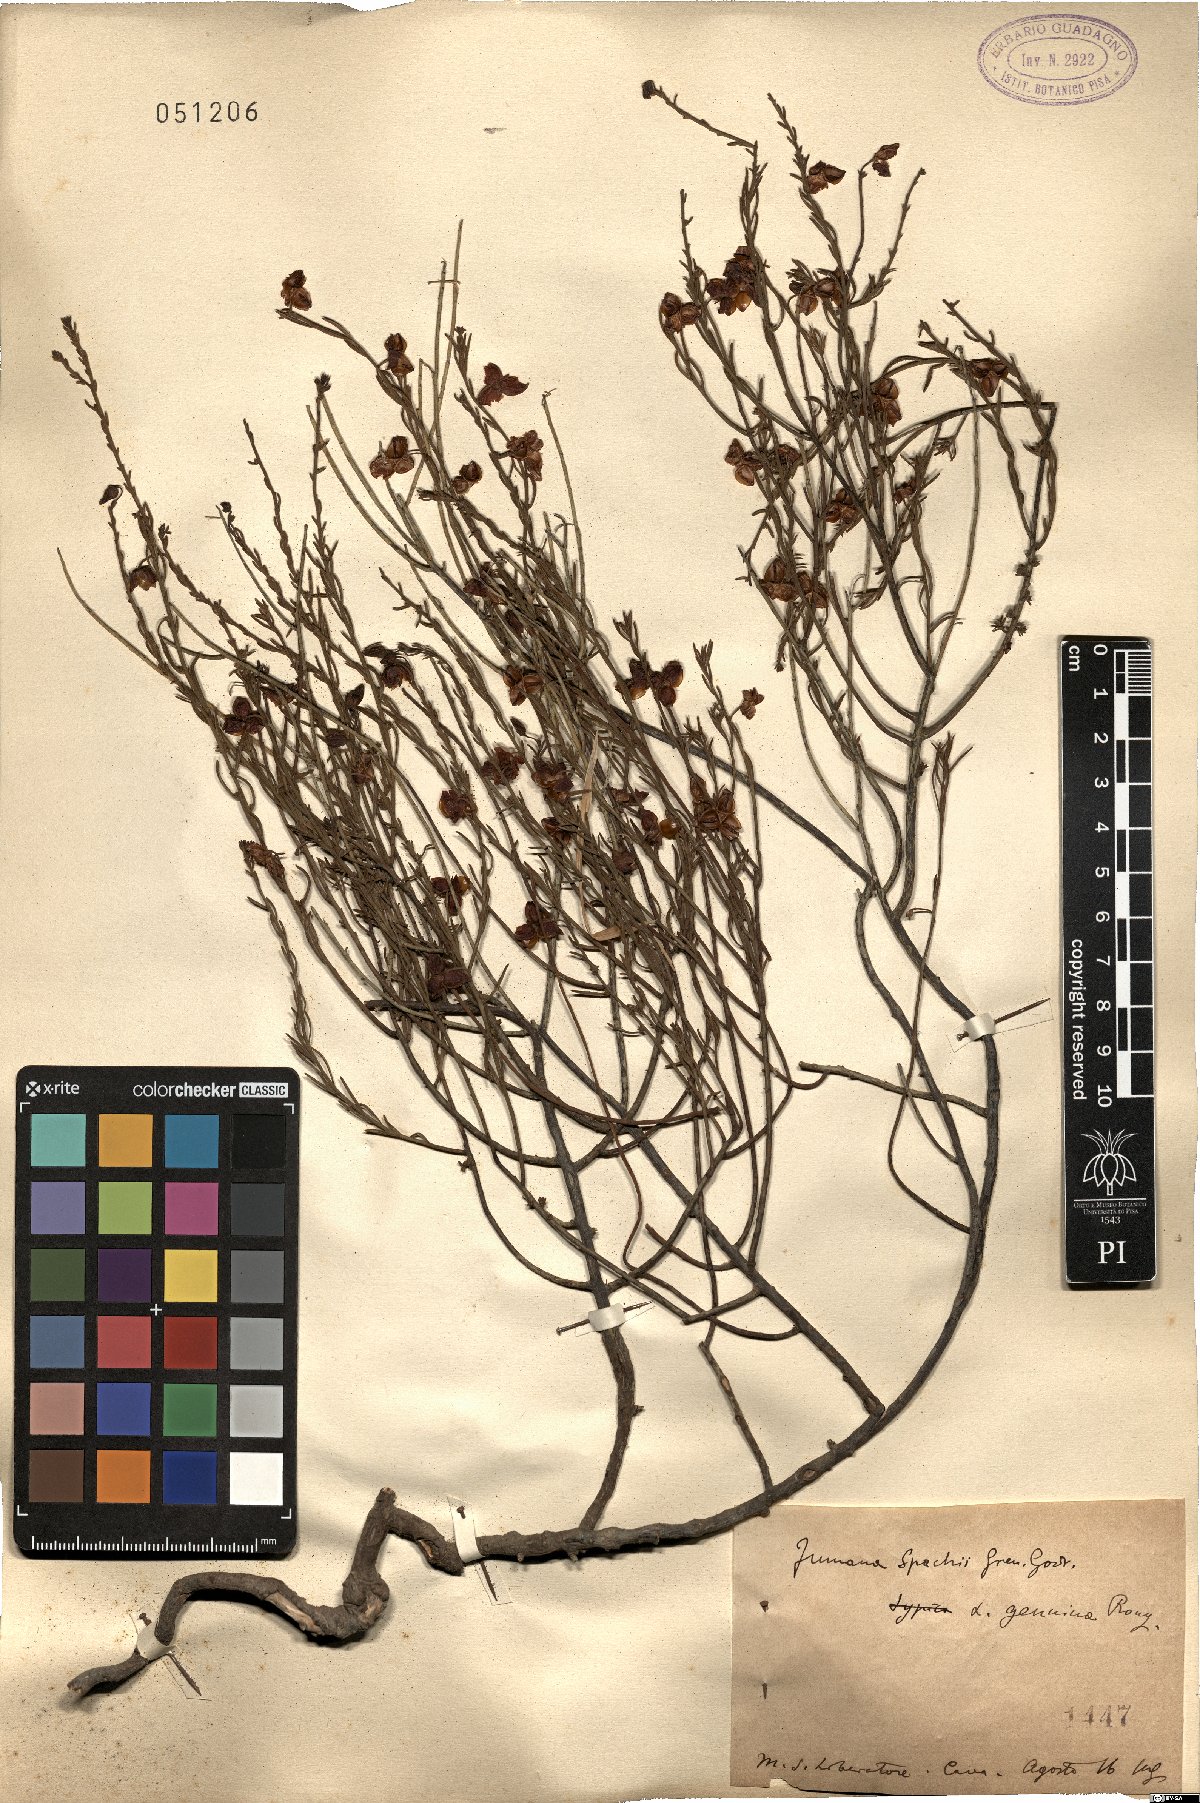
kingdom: Plantae
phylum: Tracheophyta
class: Magnoliopsida
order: Malvales
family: Cistaceae
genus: Fumana
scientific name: Fumana ericifolia
